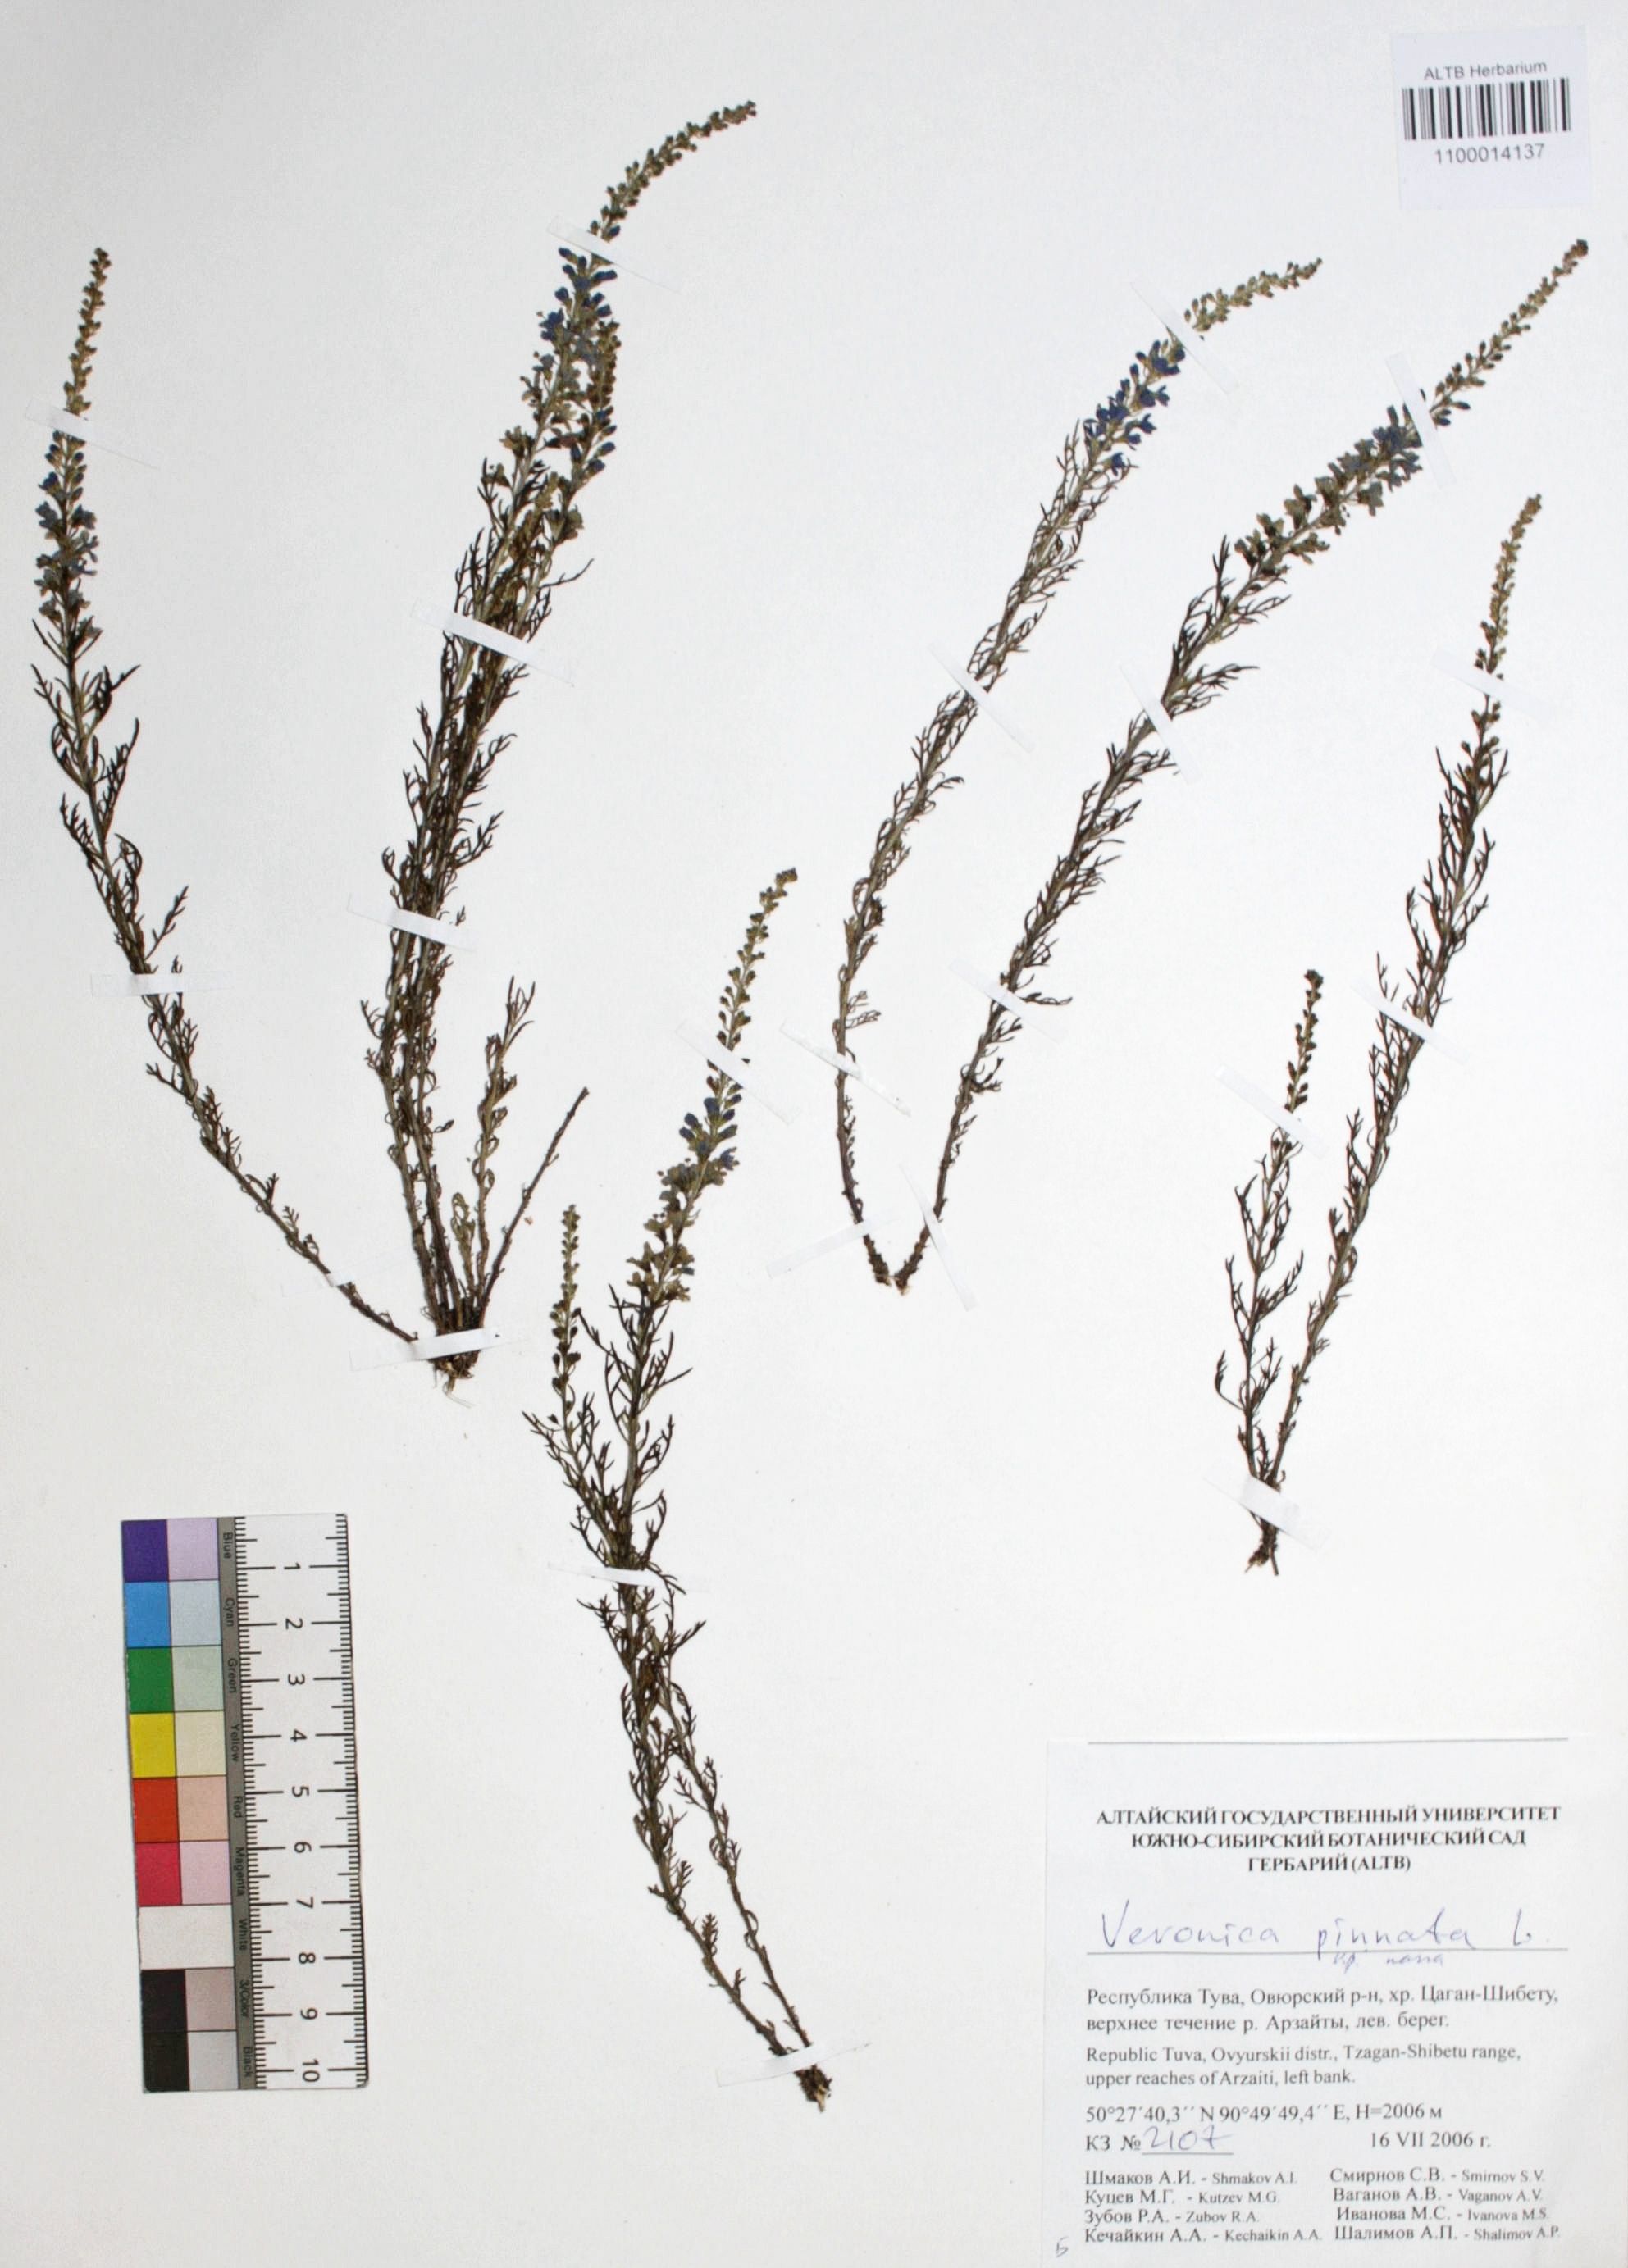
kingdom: Plantae
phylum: Tracheophyta
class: Magnoliopsida
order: Lamiales
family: Plantaginaceae
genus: Veronica
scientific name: Veronica pinnata
